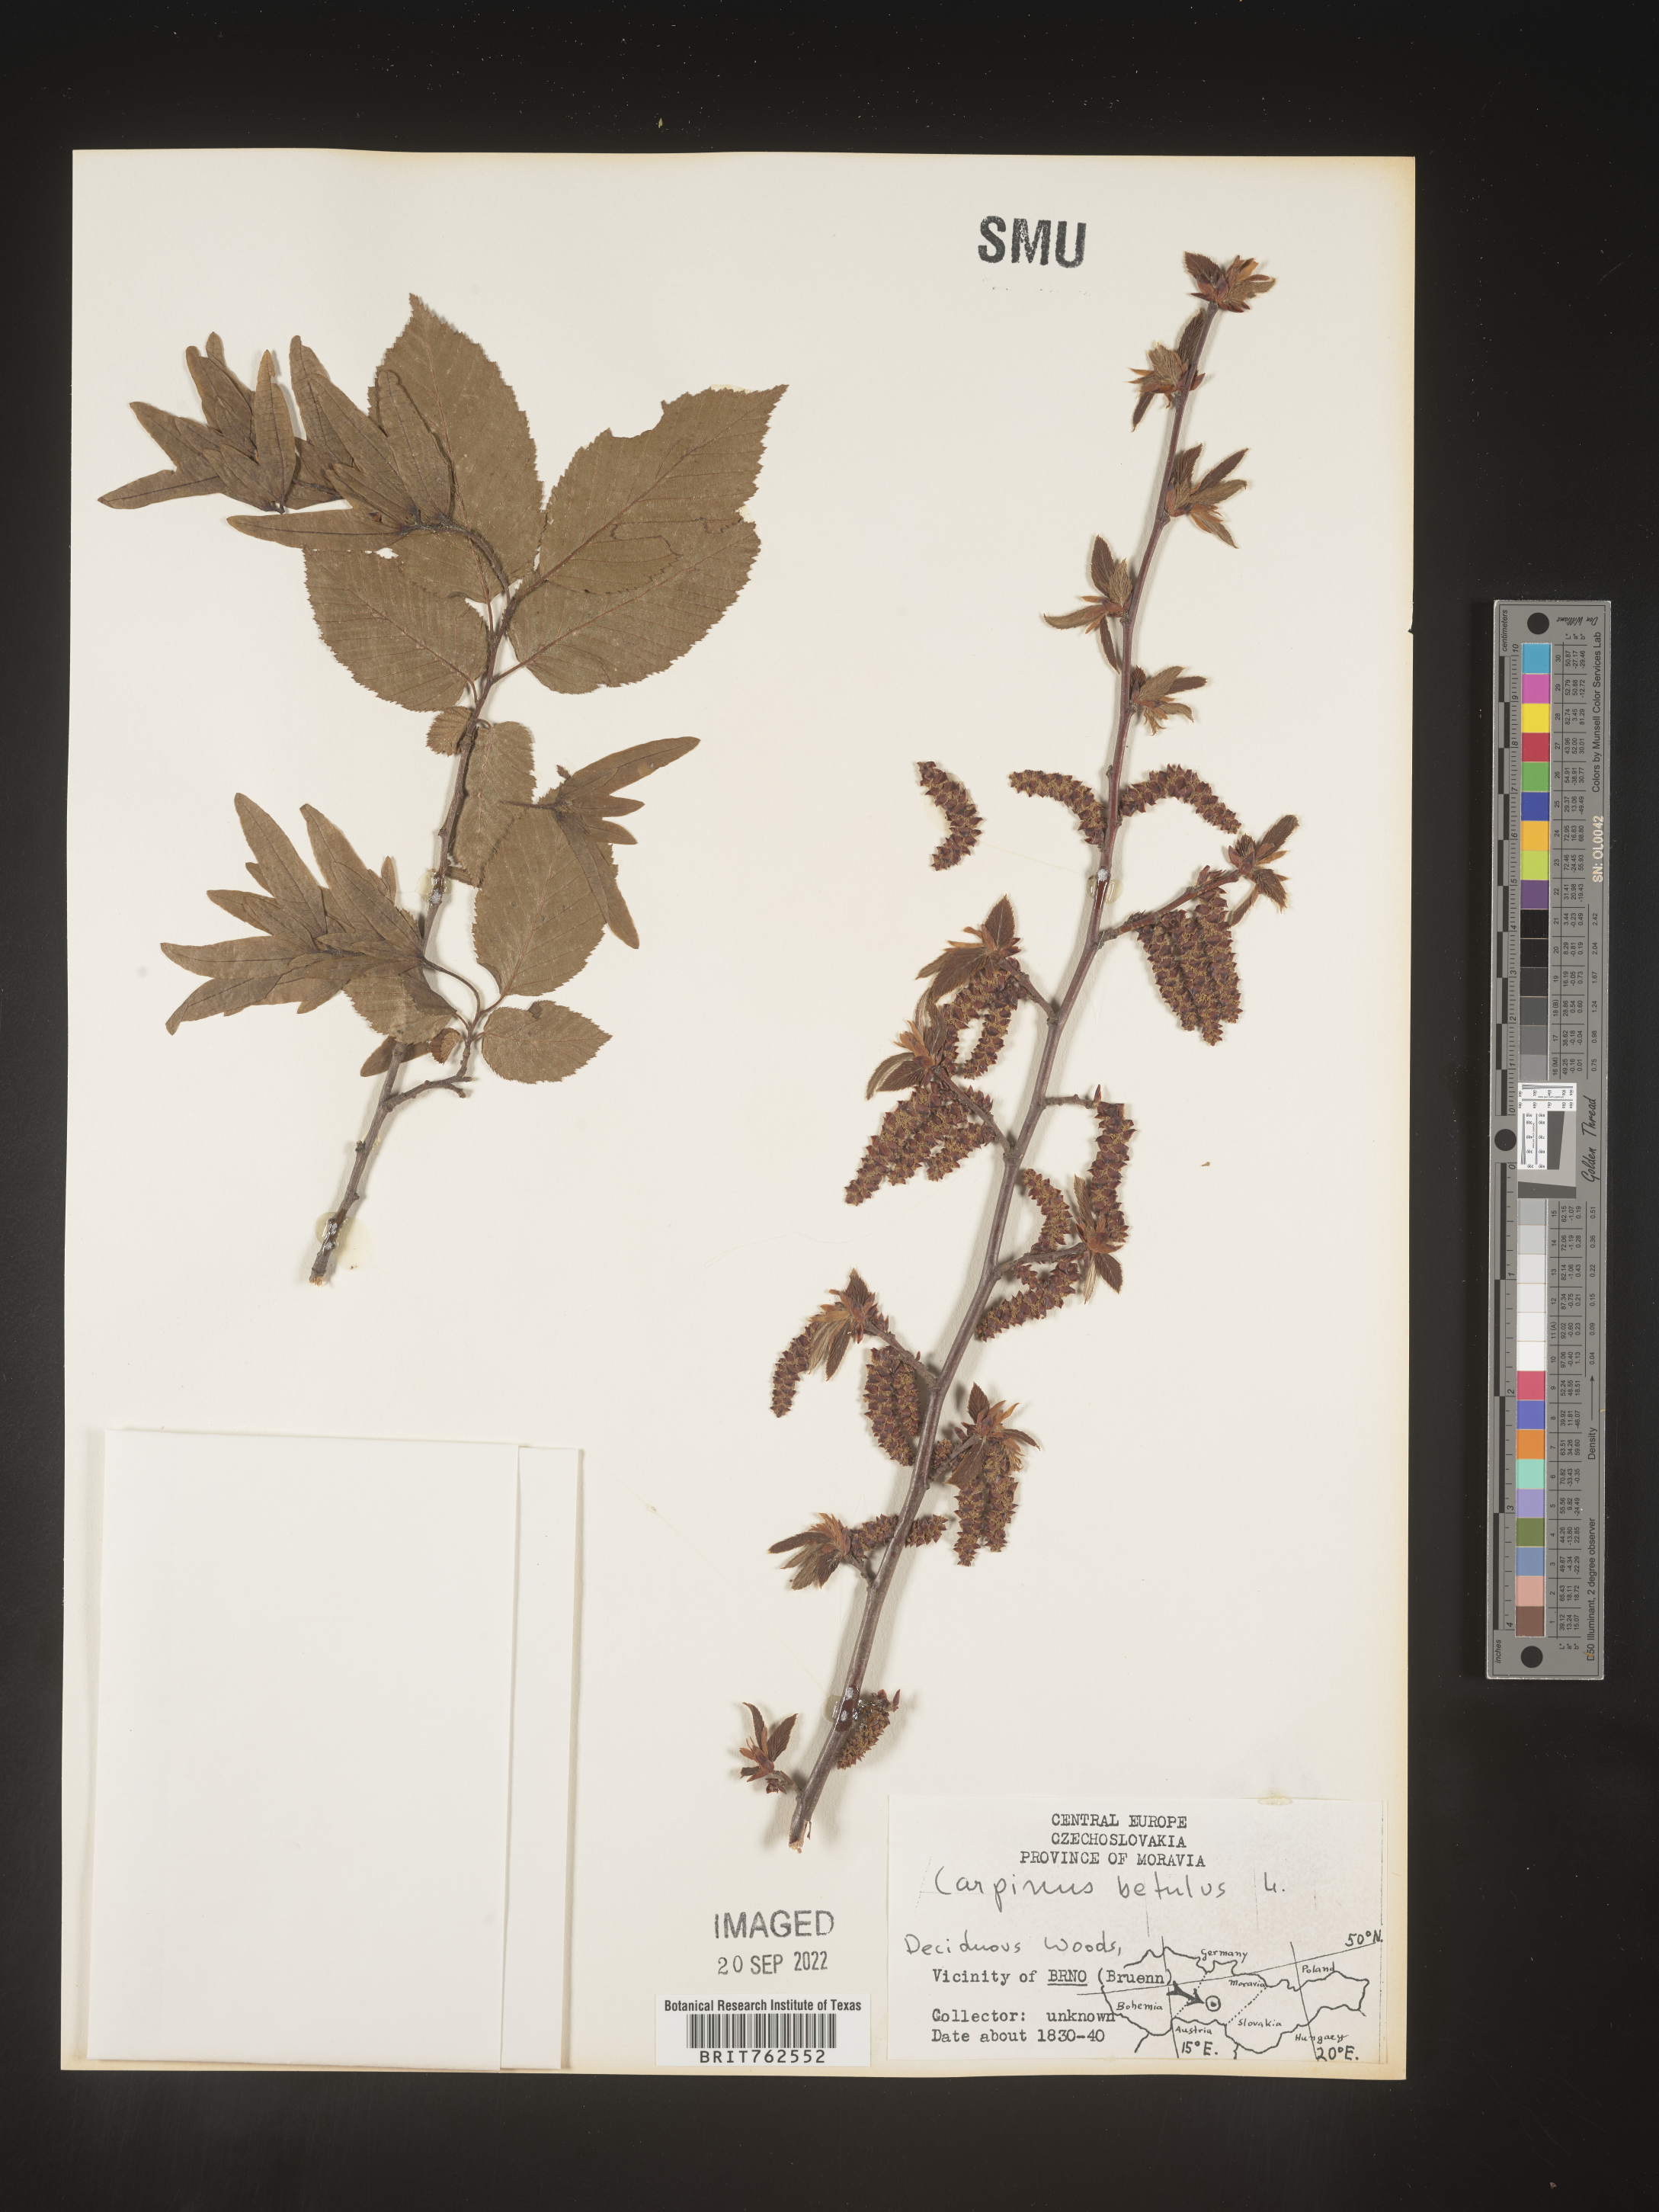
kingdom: Plantae
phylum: Tracheophyta
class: Magnoliopsida
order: Fagales
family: Betulaceae
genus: Carpinus
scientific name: Carpinus
